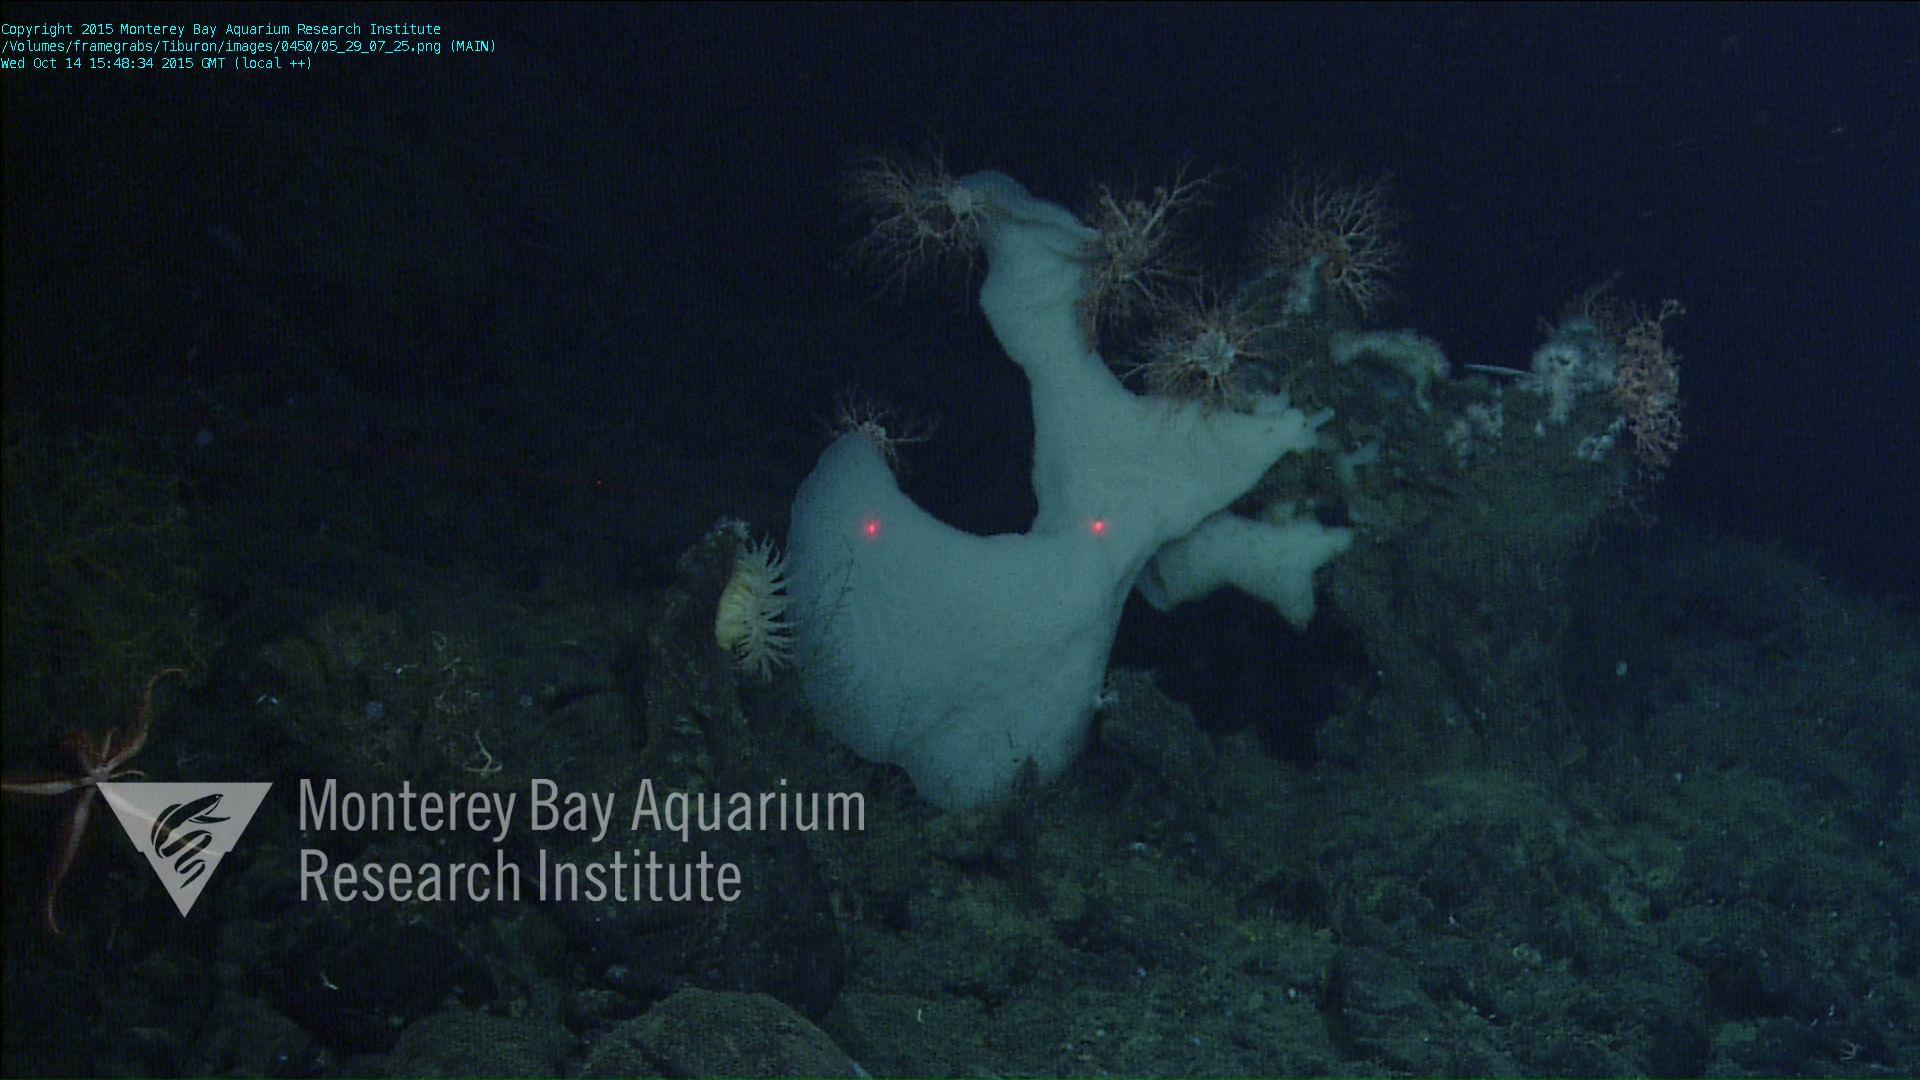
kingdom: Animalia
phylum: Porifera
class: Hexactinellida
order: Sceptrulophora
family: Euretidae
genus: Chonelasma
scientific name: Chonelasma
